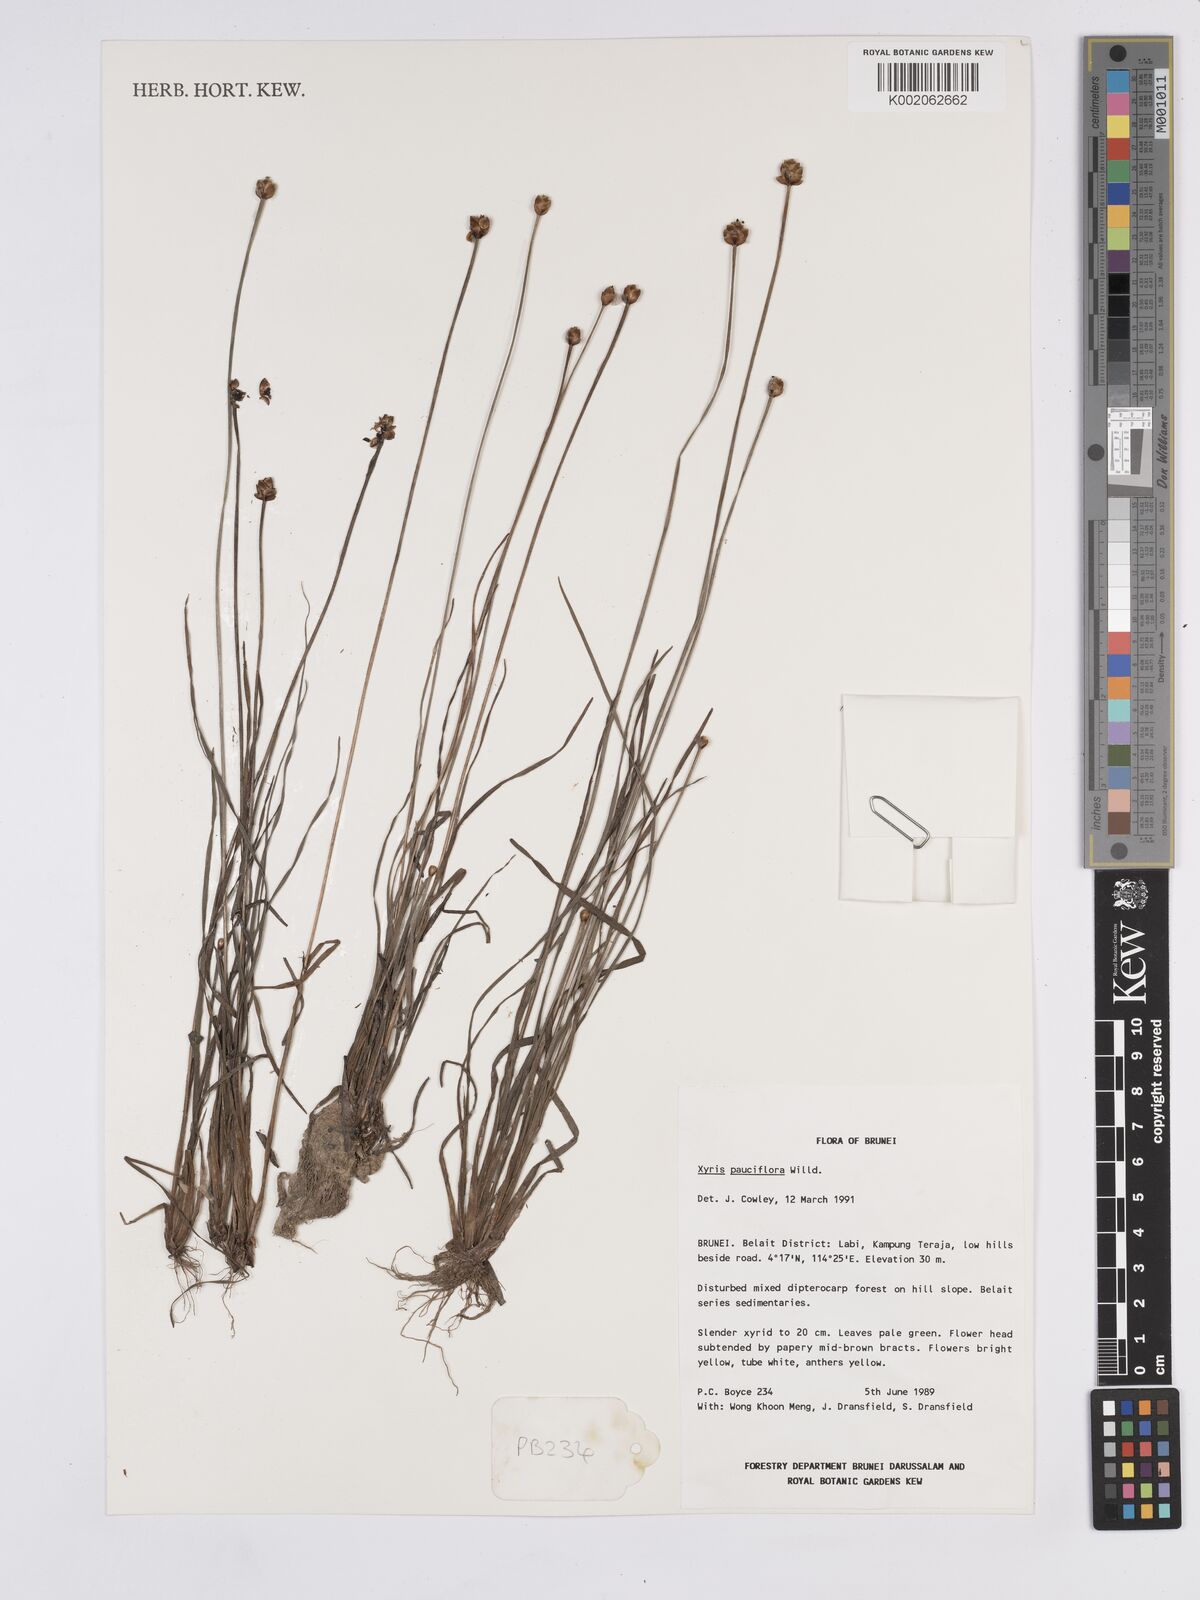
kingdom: Plantae
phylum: Tracheophyta
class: Liliopsida
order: Poales
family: Xyridaceae
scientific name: Xyridaceae
